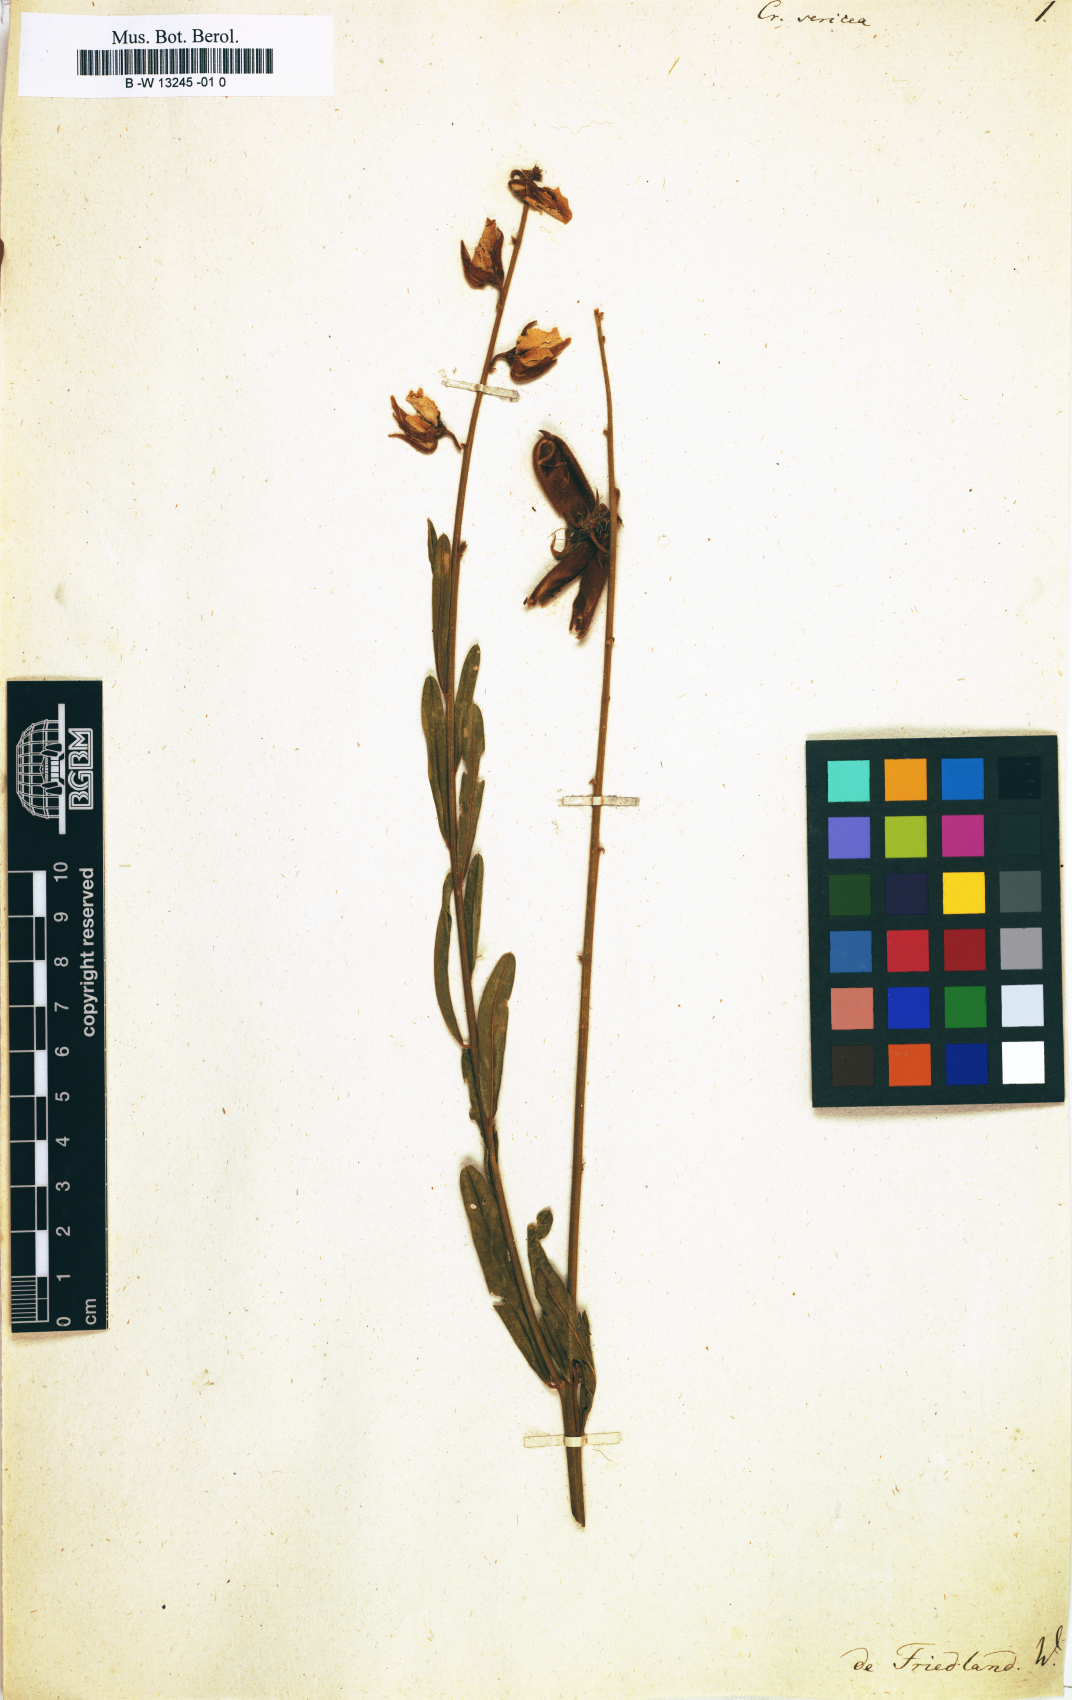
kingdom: Plantae
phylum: Tracheophyta
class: Magnoliopsida
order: Fabales
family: Fabaceae
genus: Crotalaria
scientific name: Crotalaria sericea
